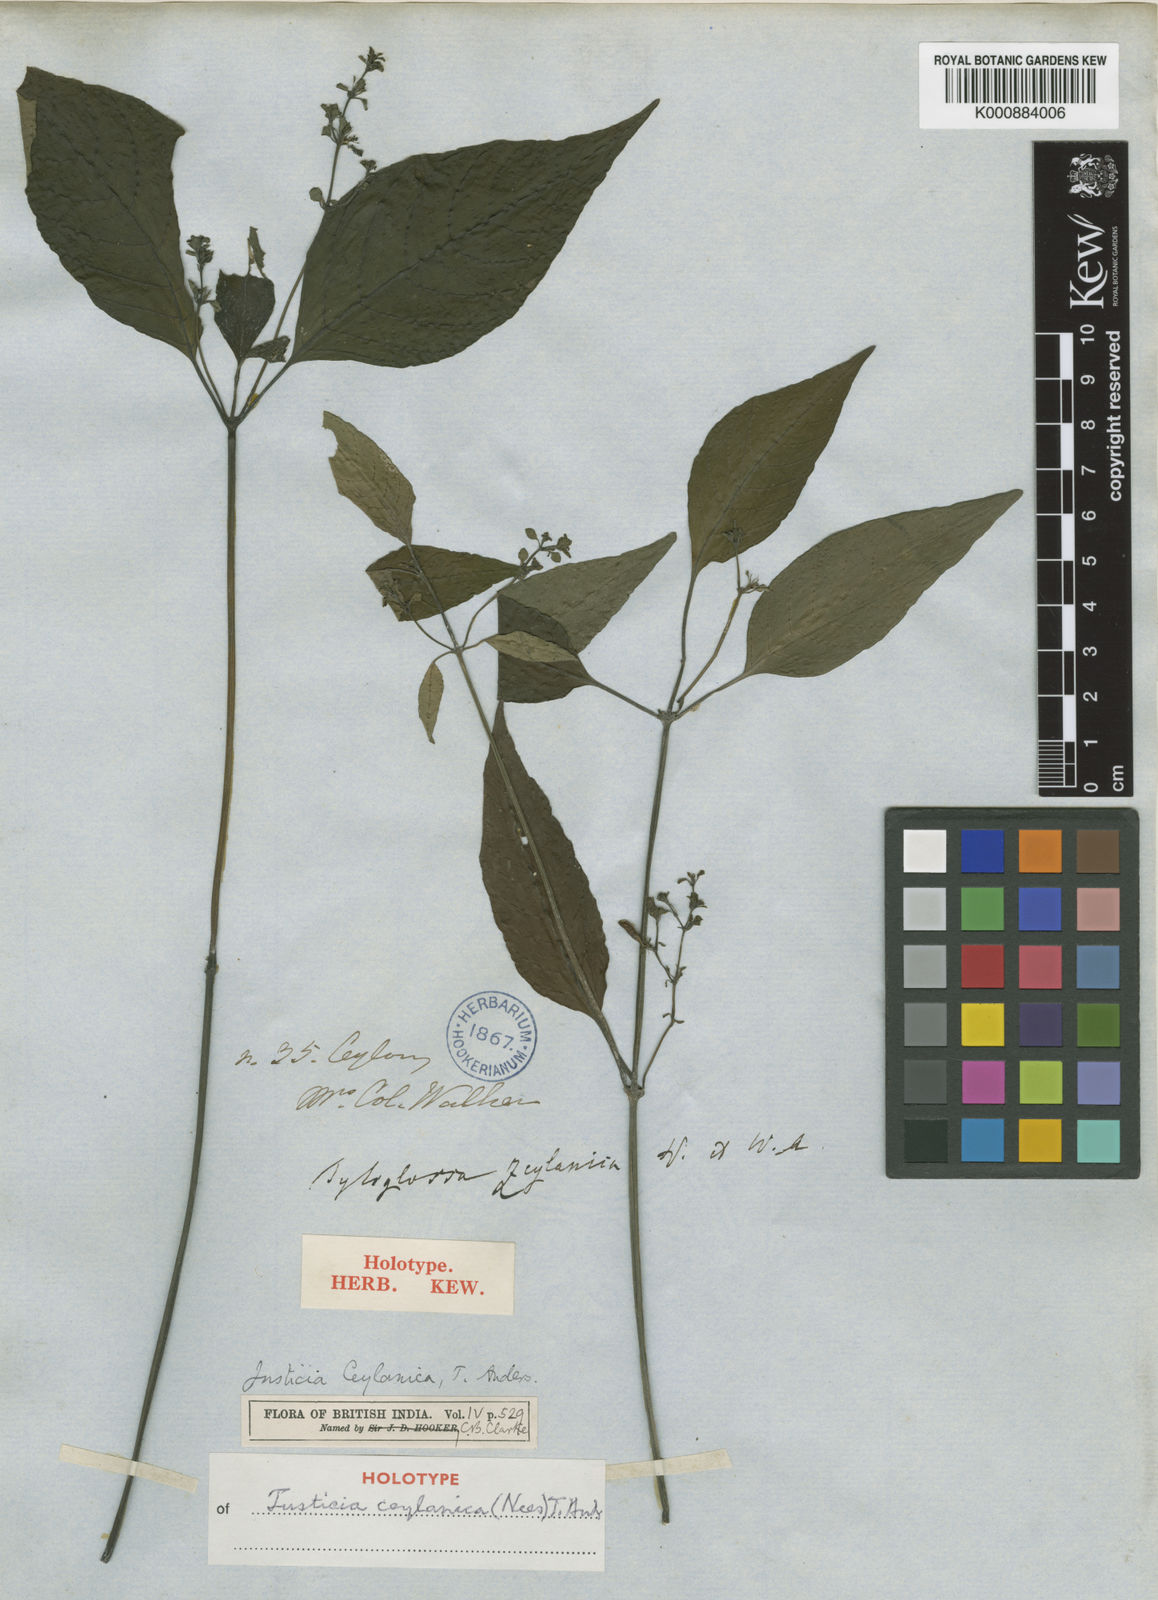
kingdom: Plantae
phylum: Tracheophyta
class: Magnoliopsida
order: Lamiales
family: Acanthaceae
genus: Justicia
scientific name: Justicia ceylanica
